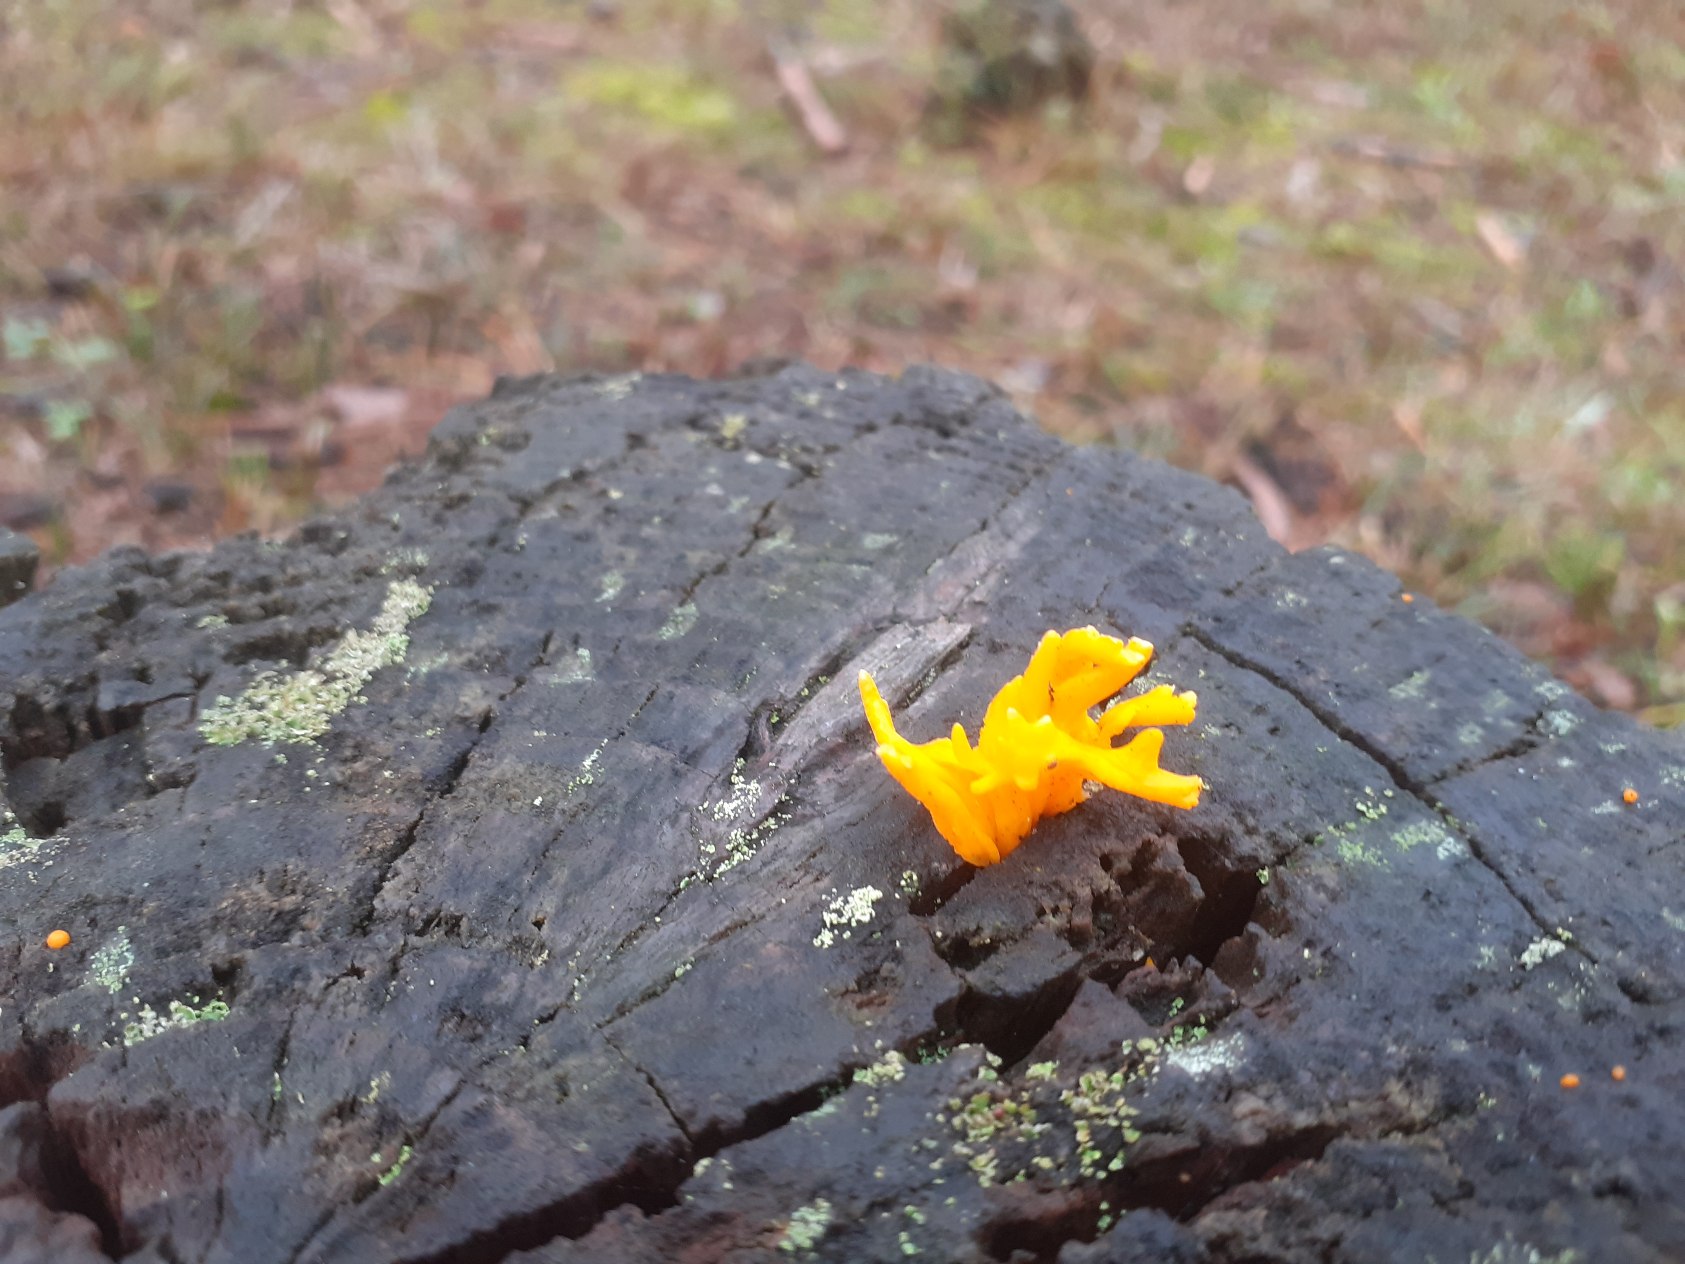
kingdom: Fungi
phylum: Basidiomycota
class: Dacrymycetes
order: Dacrymycetales
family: Dacrymycetaceae
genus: Calocera
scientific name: Calocera viscosa
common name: Almindelig guldgaffel
